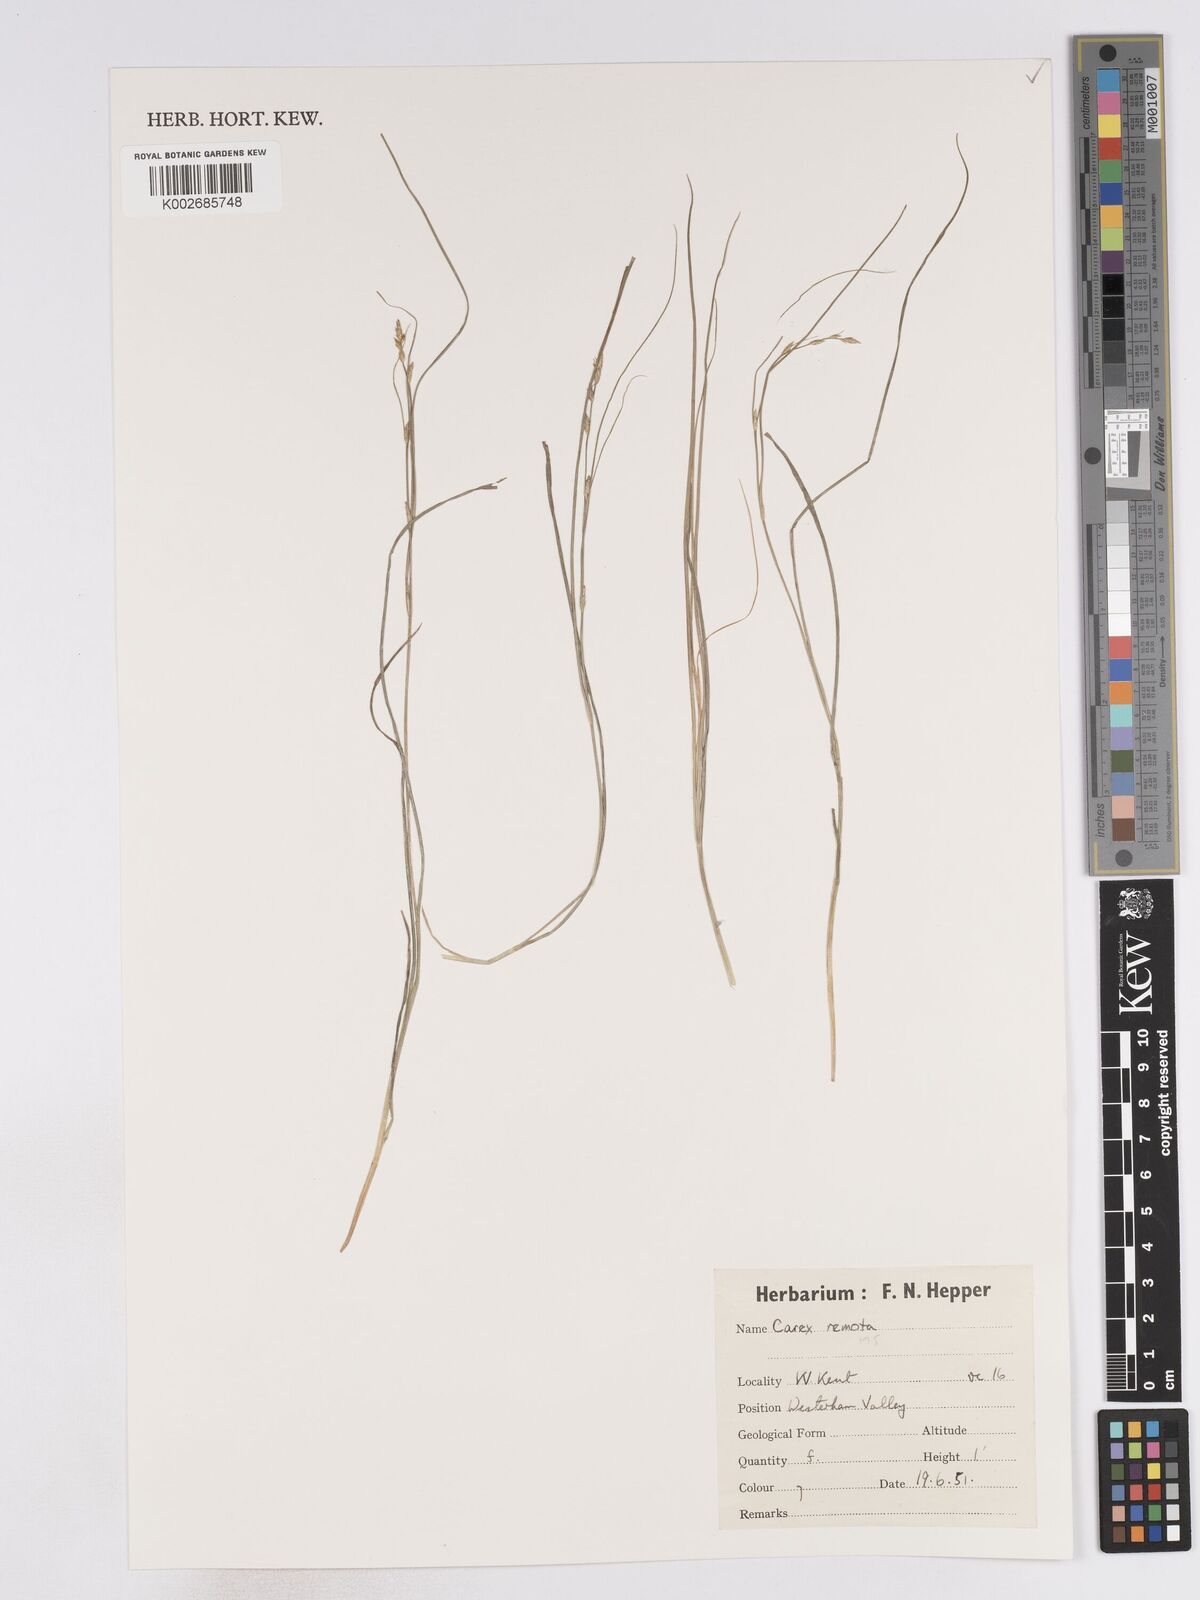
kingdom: Plantae
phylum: Tracheophyta
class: Liliopsida
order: Poales
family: Cyperaceae
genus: Carex
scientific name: Carex remota
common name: Remote sedge
